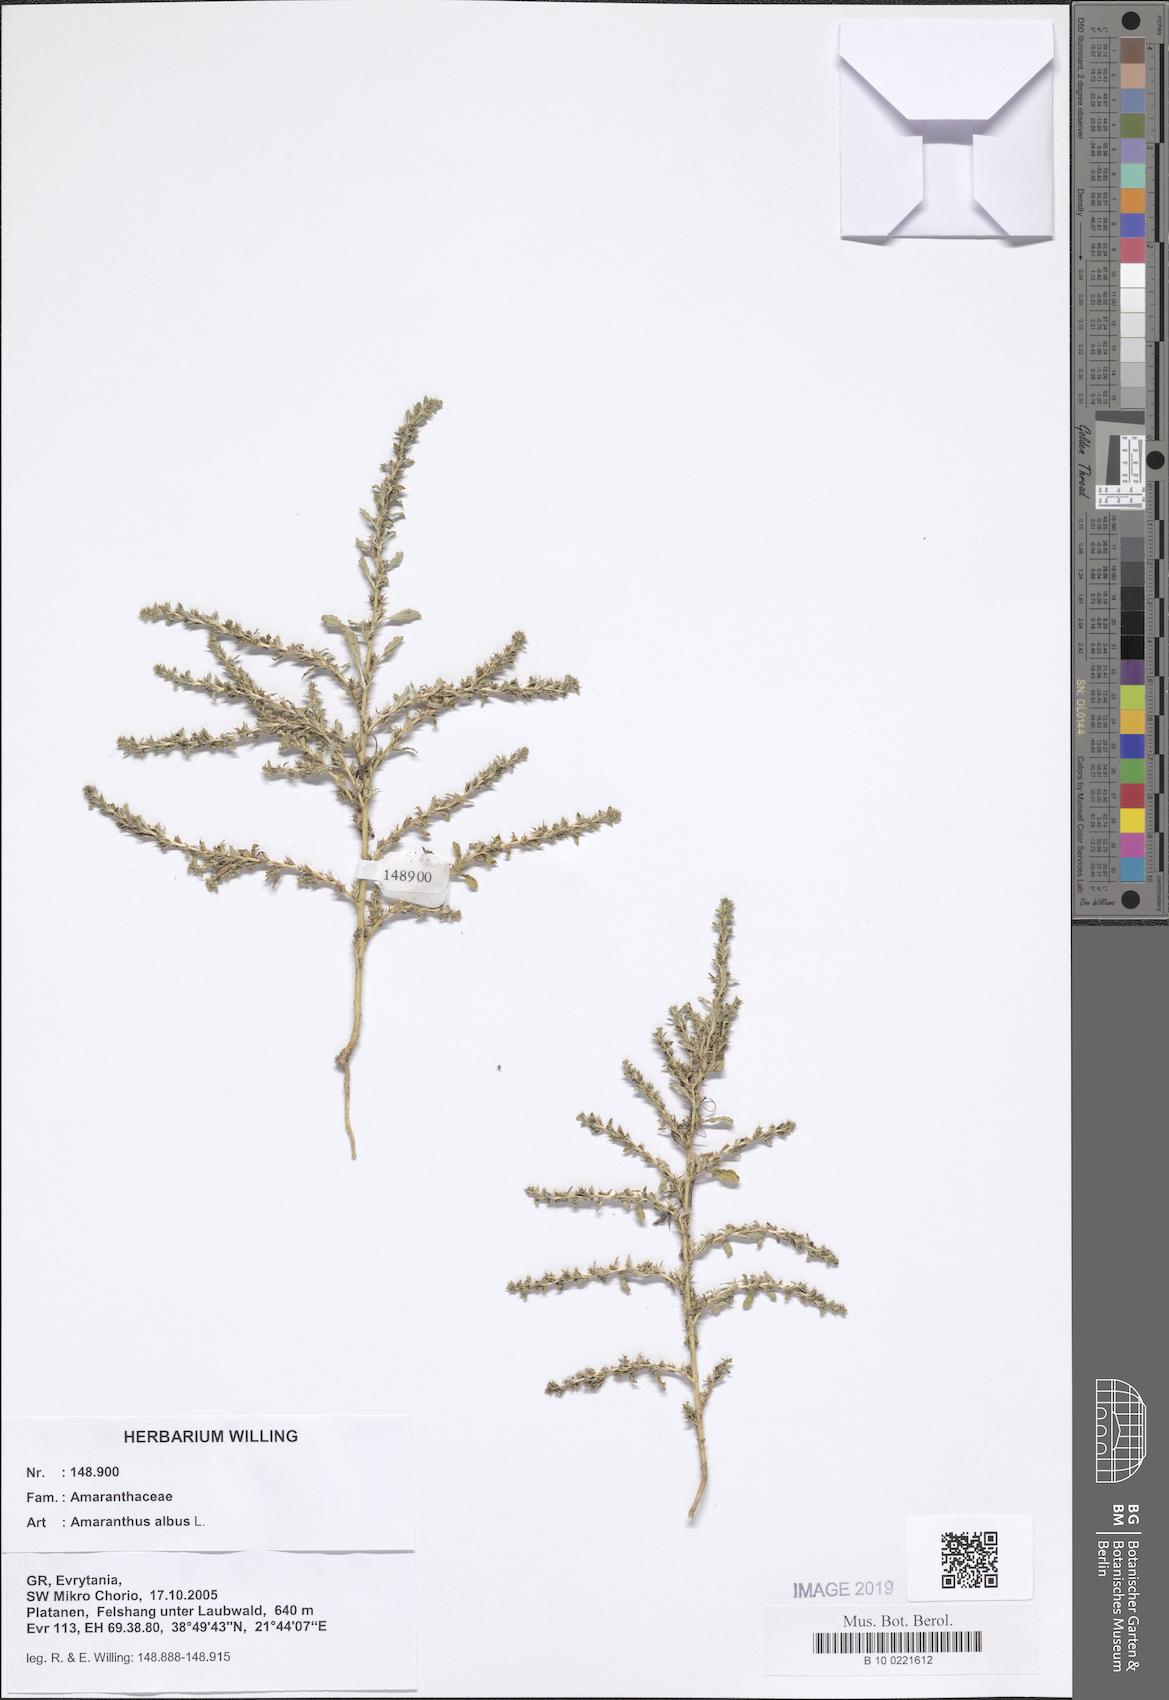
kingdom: Plantae
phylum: Tracheophyta
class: Magnoliopsida
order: Caryophyllales
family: Amaranthaceae
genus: Amaranthus
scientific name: Amaranthus albus
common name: White pigweed
